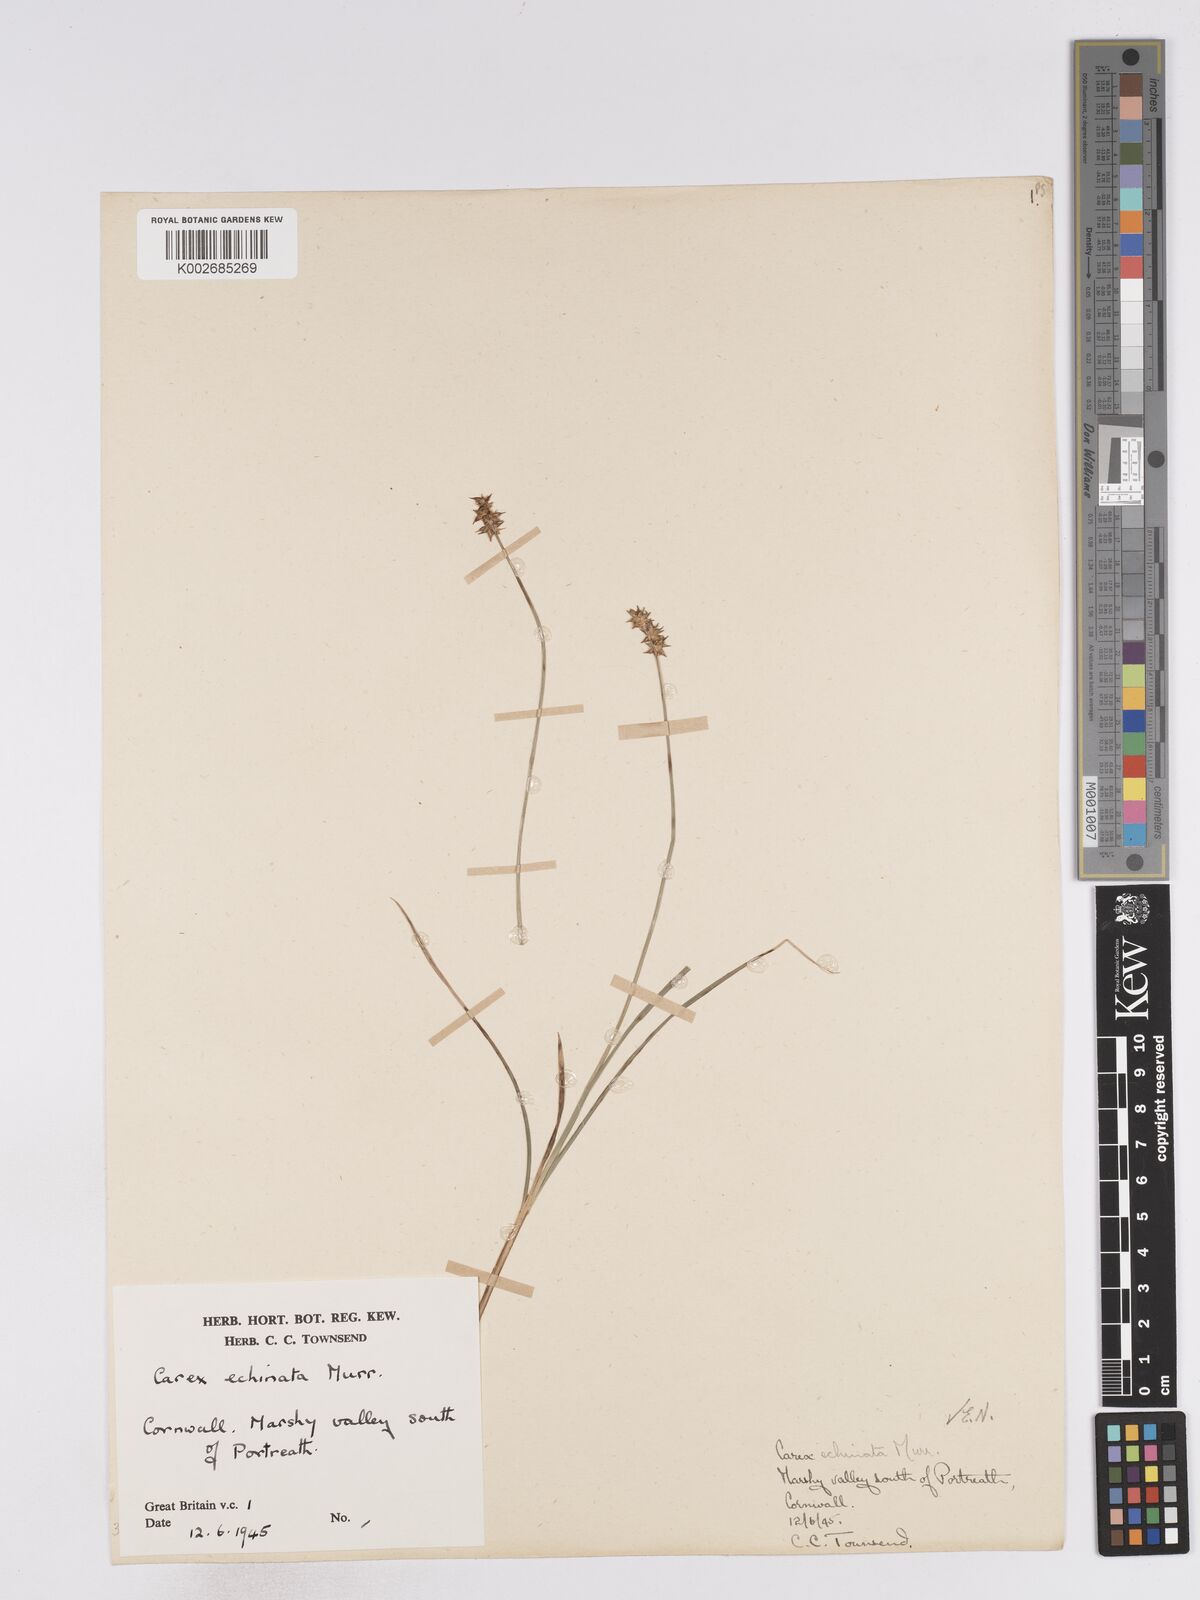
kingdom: Plantae
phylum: Tracheophyta
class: Liliopsida
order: Poales
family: Cyperaceae
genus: Carex
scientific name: Carex echinata
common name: Star sedge
